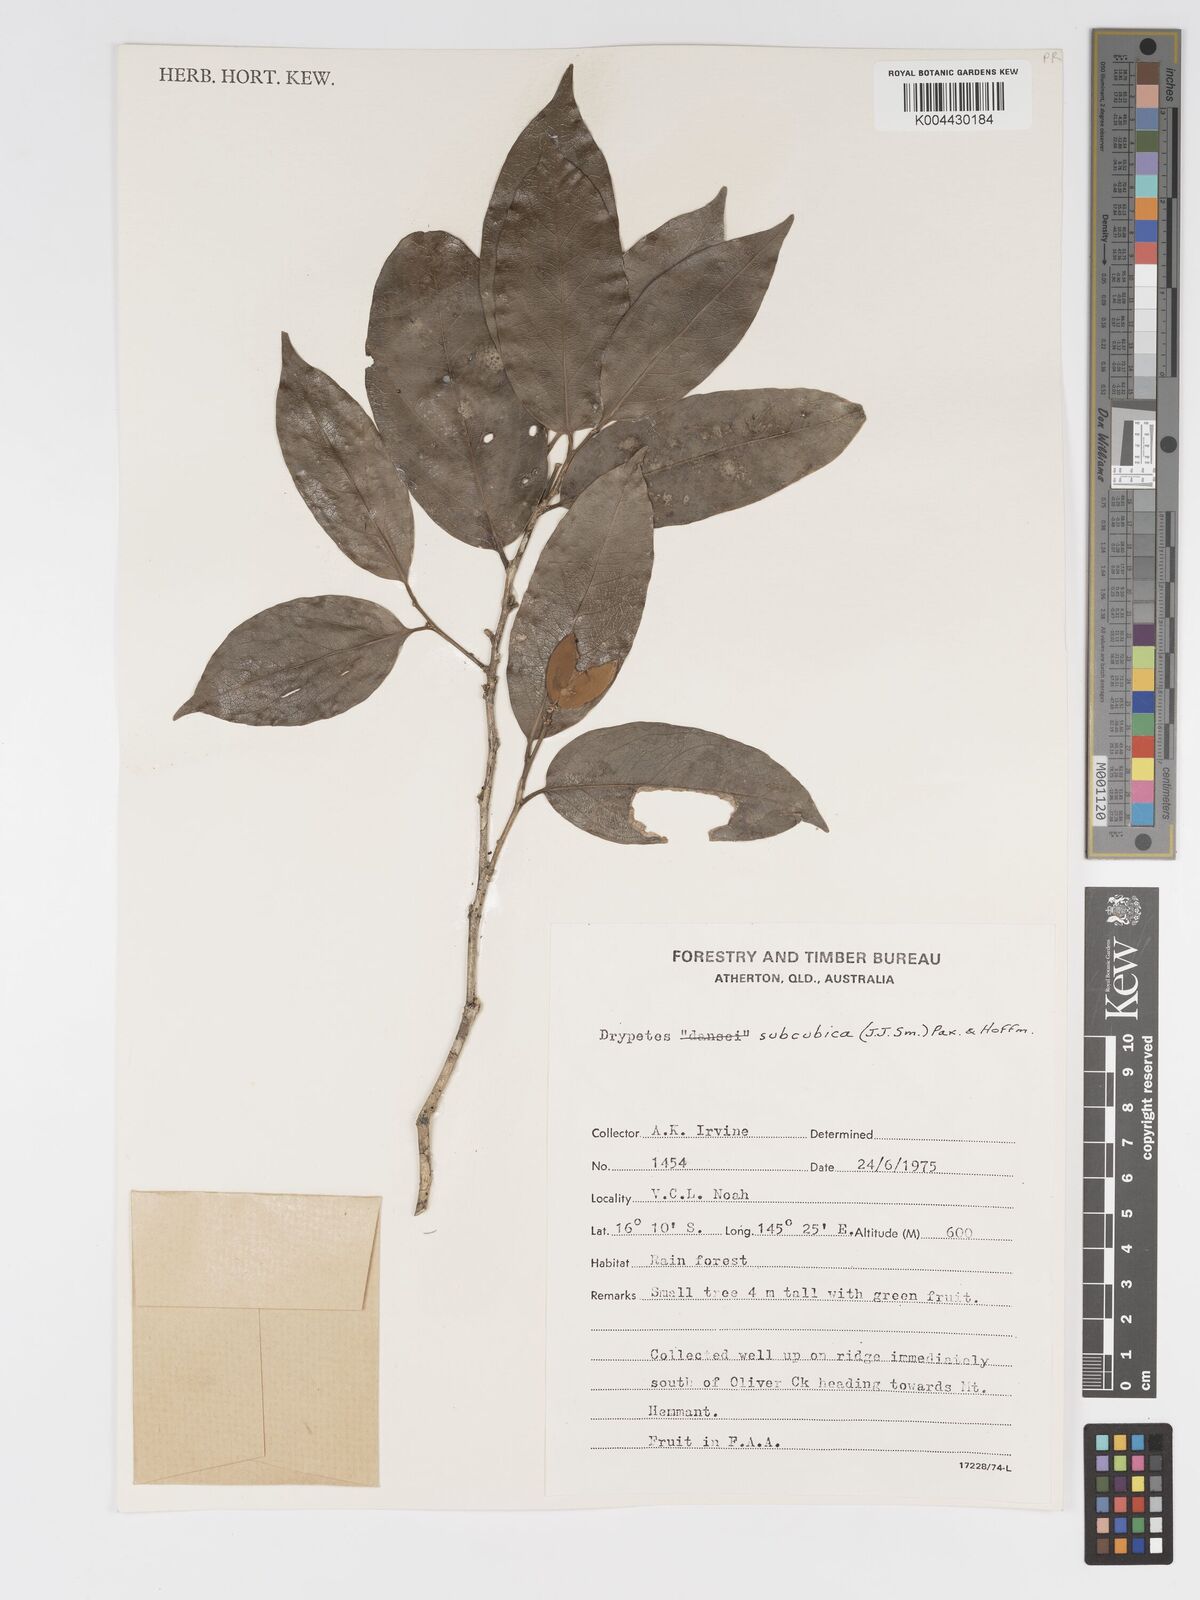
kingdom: Plantae
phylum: Tracheophyta
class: Magnoliopsida
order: Malpighiales
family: Putranjivaceae
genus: Drypetes
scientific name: Drypetes subcubica
